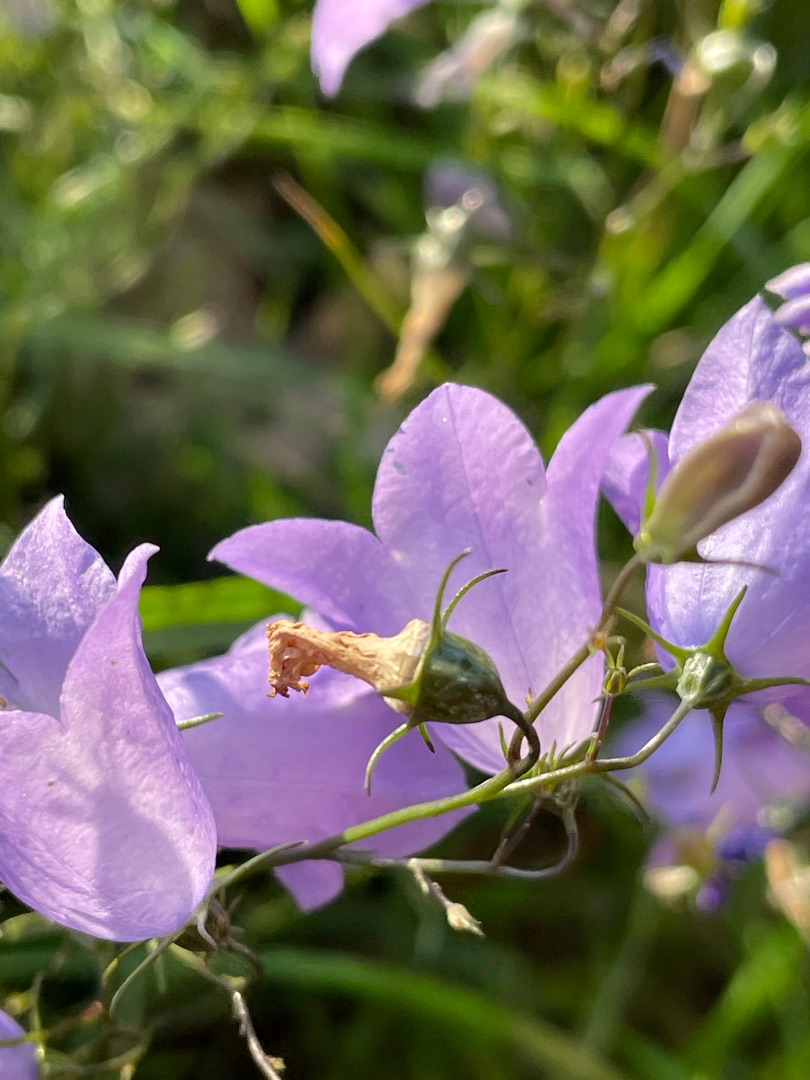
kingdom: Plantae
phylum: Tracheophyta
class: Magnoliopsida
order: Asterales
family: Campanulaceae
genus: Campanula
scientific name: Campanula rotundifolia
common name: Liden klokke
